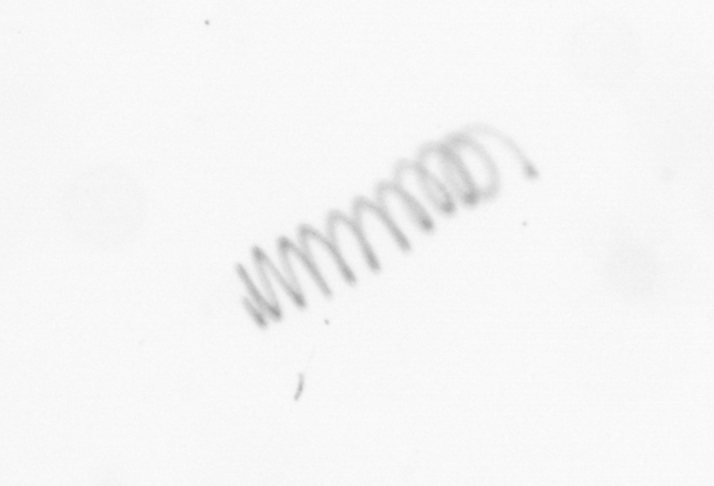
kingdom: Chromista
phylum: Ochrophyta
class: Bacillariophyceae
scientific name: Bacillariophyceae
